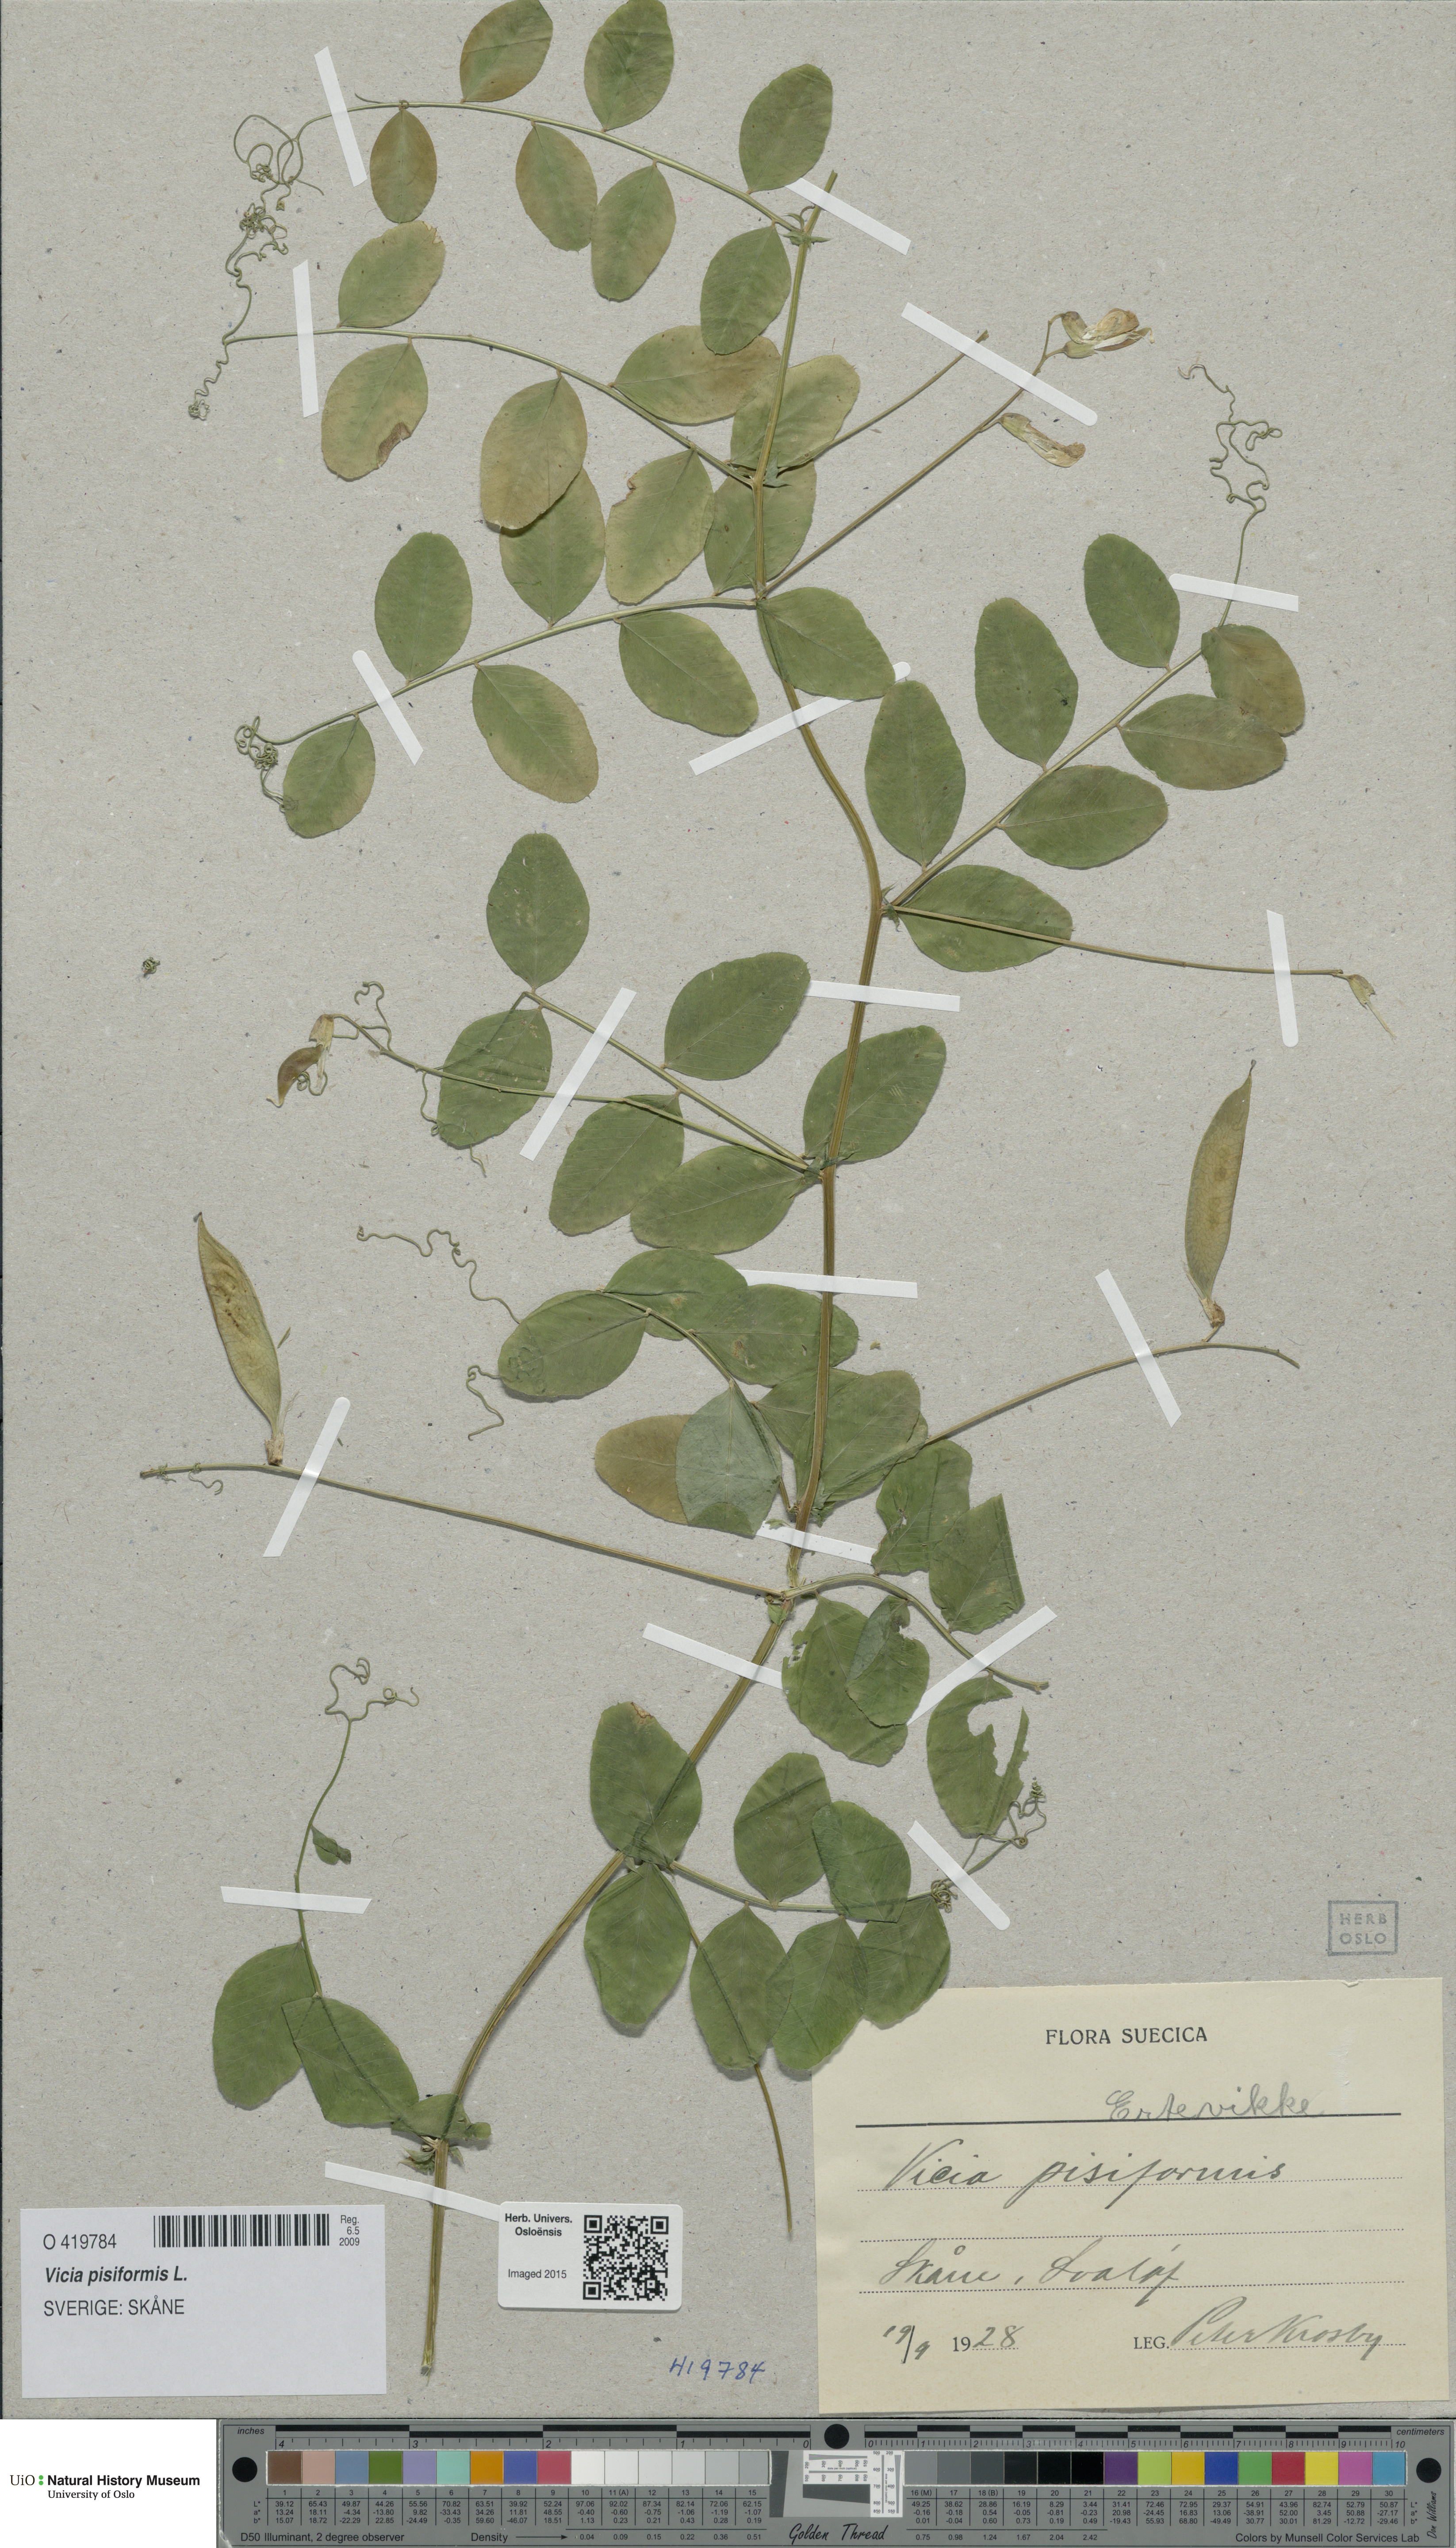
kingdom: Plantae
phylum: Tracheophyta
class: Magnoliopsida
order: Fabales
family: Fabaceae
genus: Vicia
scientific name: Vicia pisiformis
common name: Pale-flower vetch
